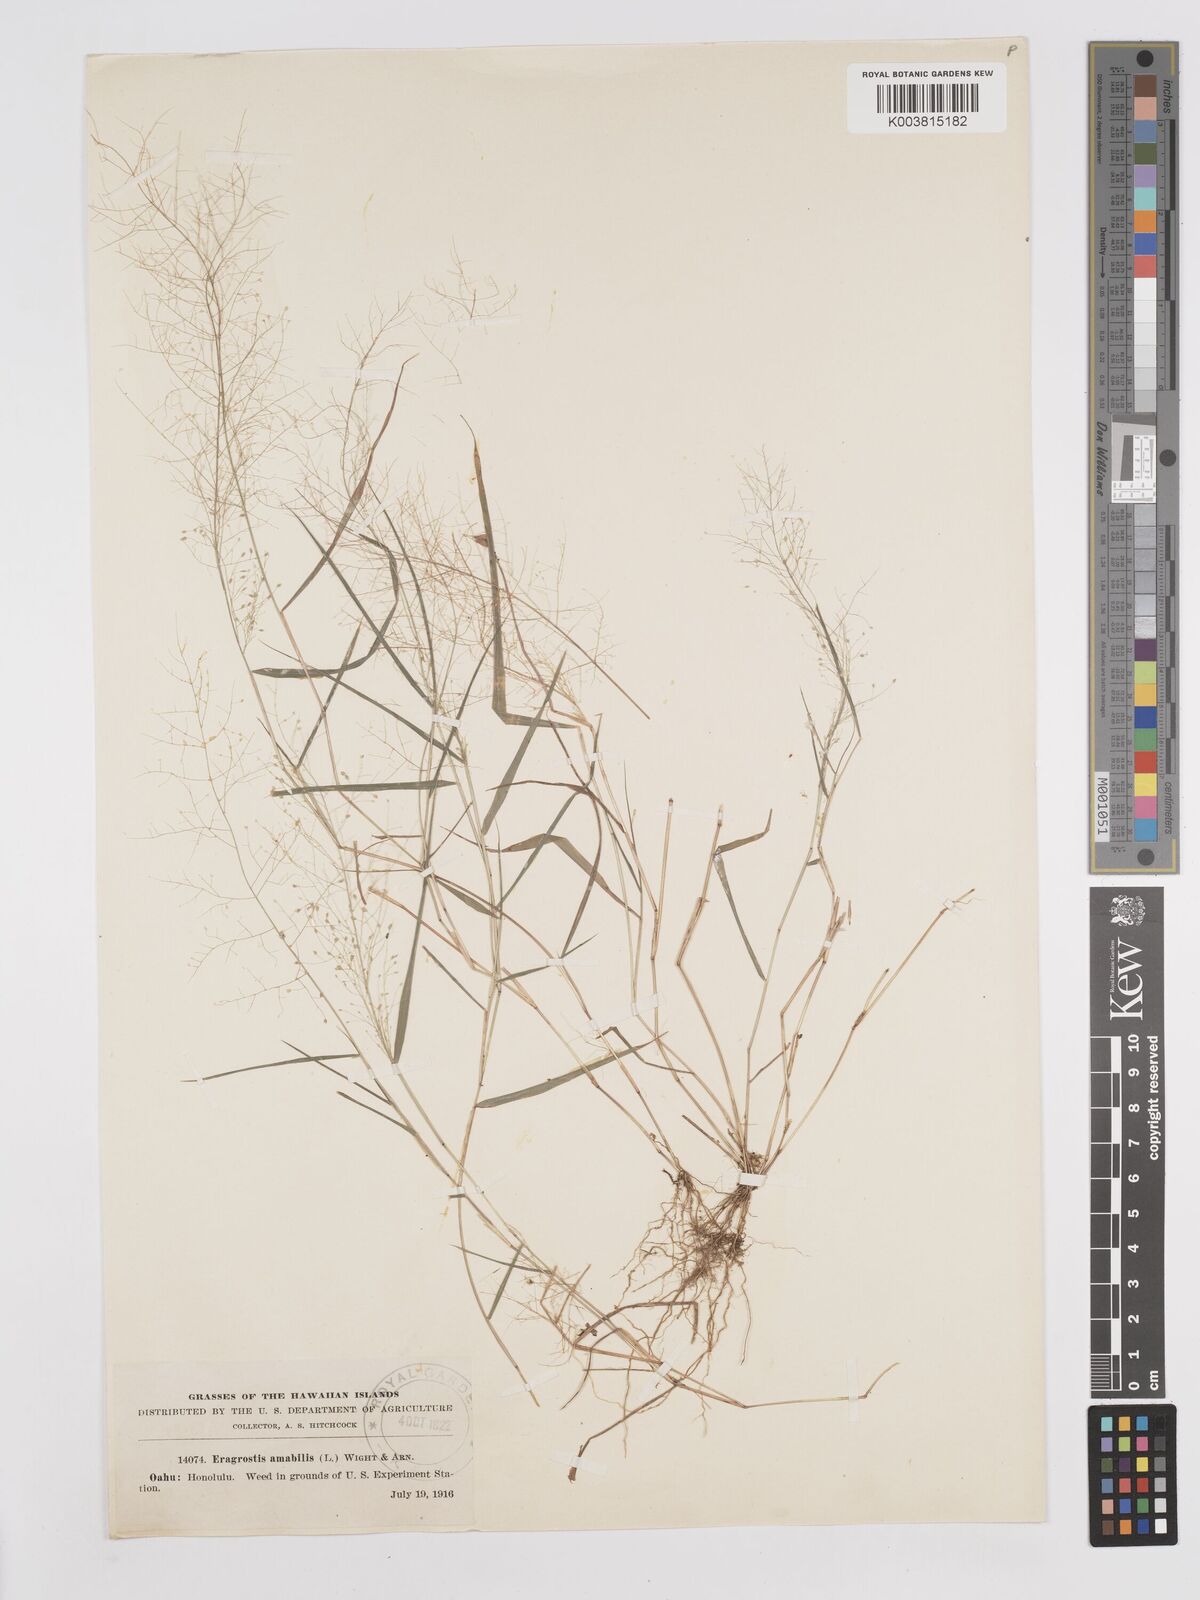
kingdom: Plantae
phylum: Tracheophyta
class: Liliopsida
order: Poales
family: Poaceae
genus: Eragrostis
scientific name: Eragrostis tenella
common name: Japanese lovegrass
